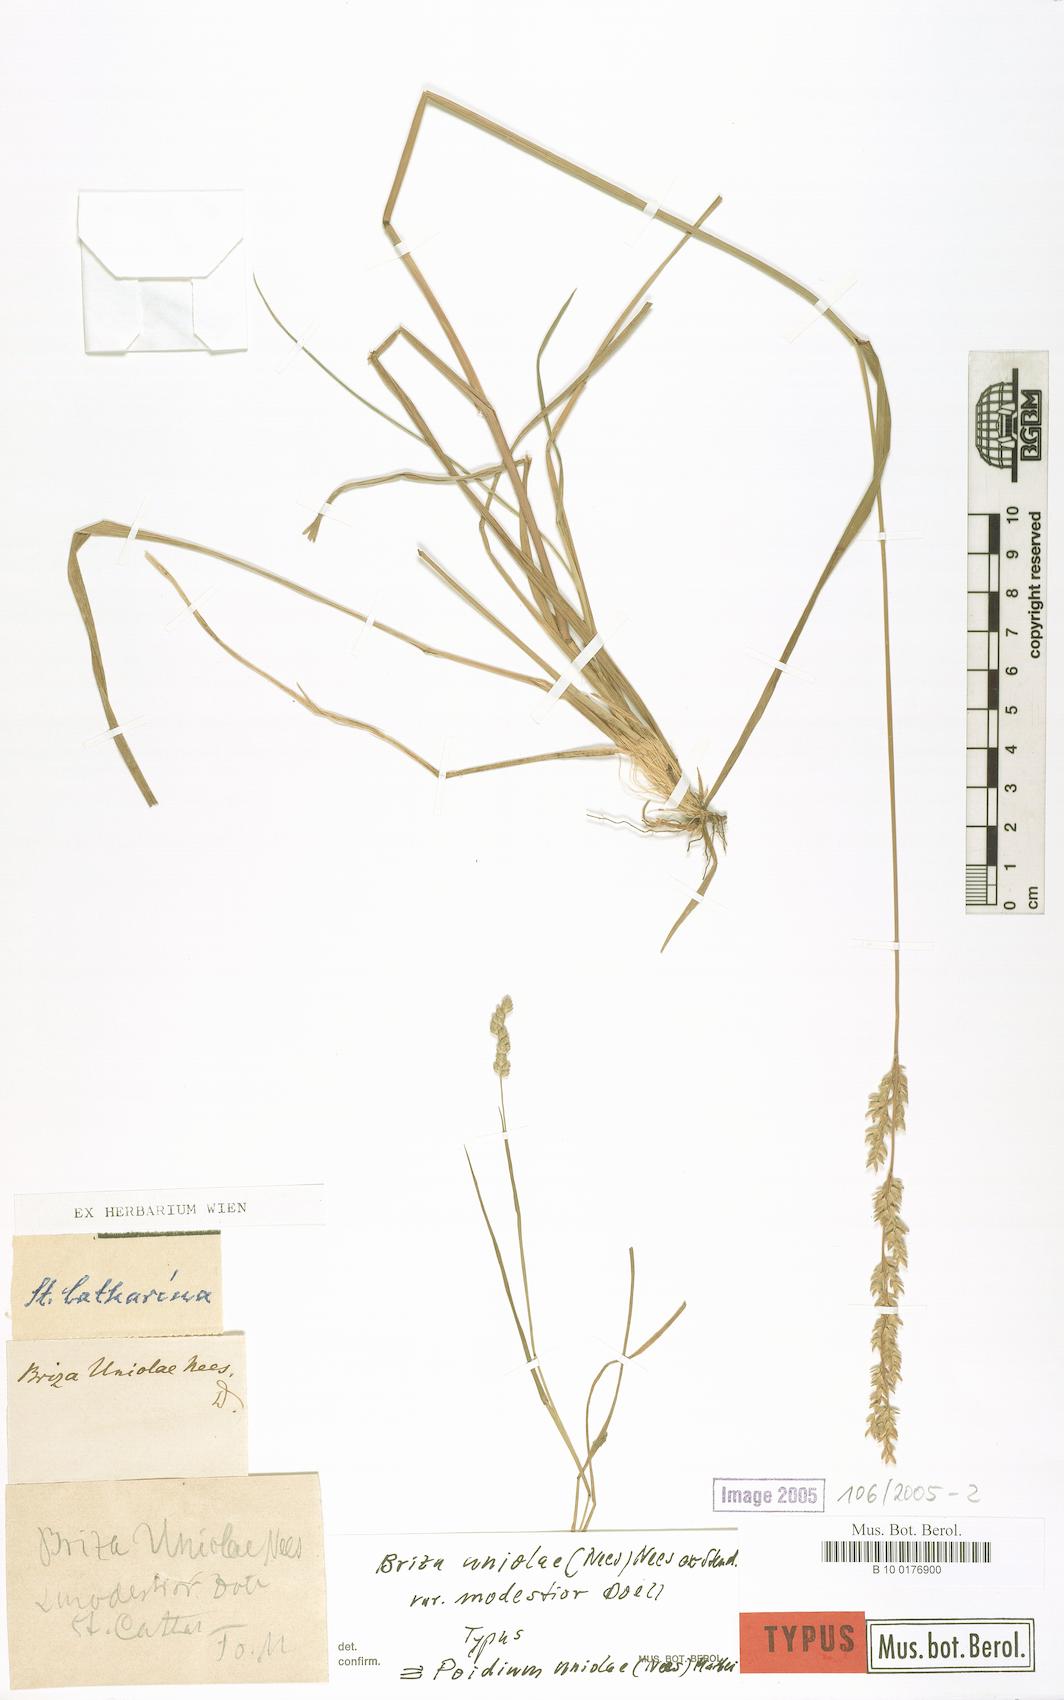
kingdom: Plantae
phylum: Tracheophyta
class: Liliopsida
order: Poales
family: Poaceae
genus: Poidium
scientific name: Poidium uniolae
